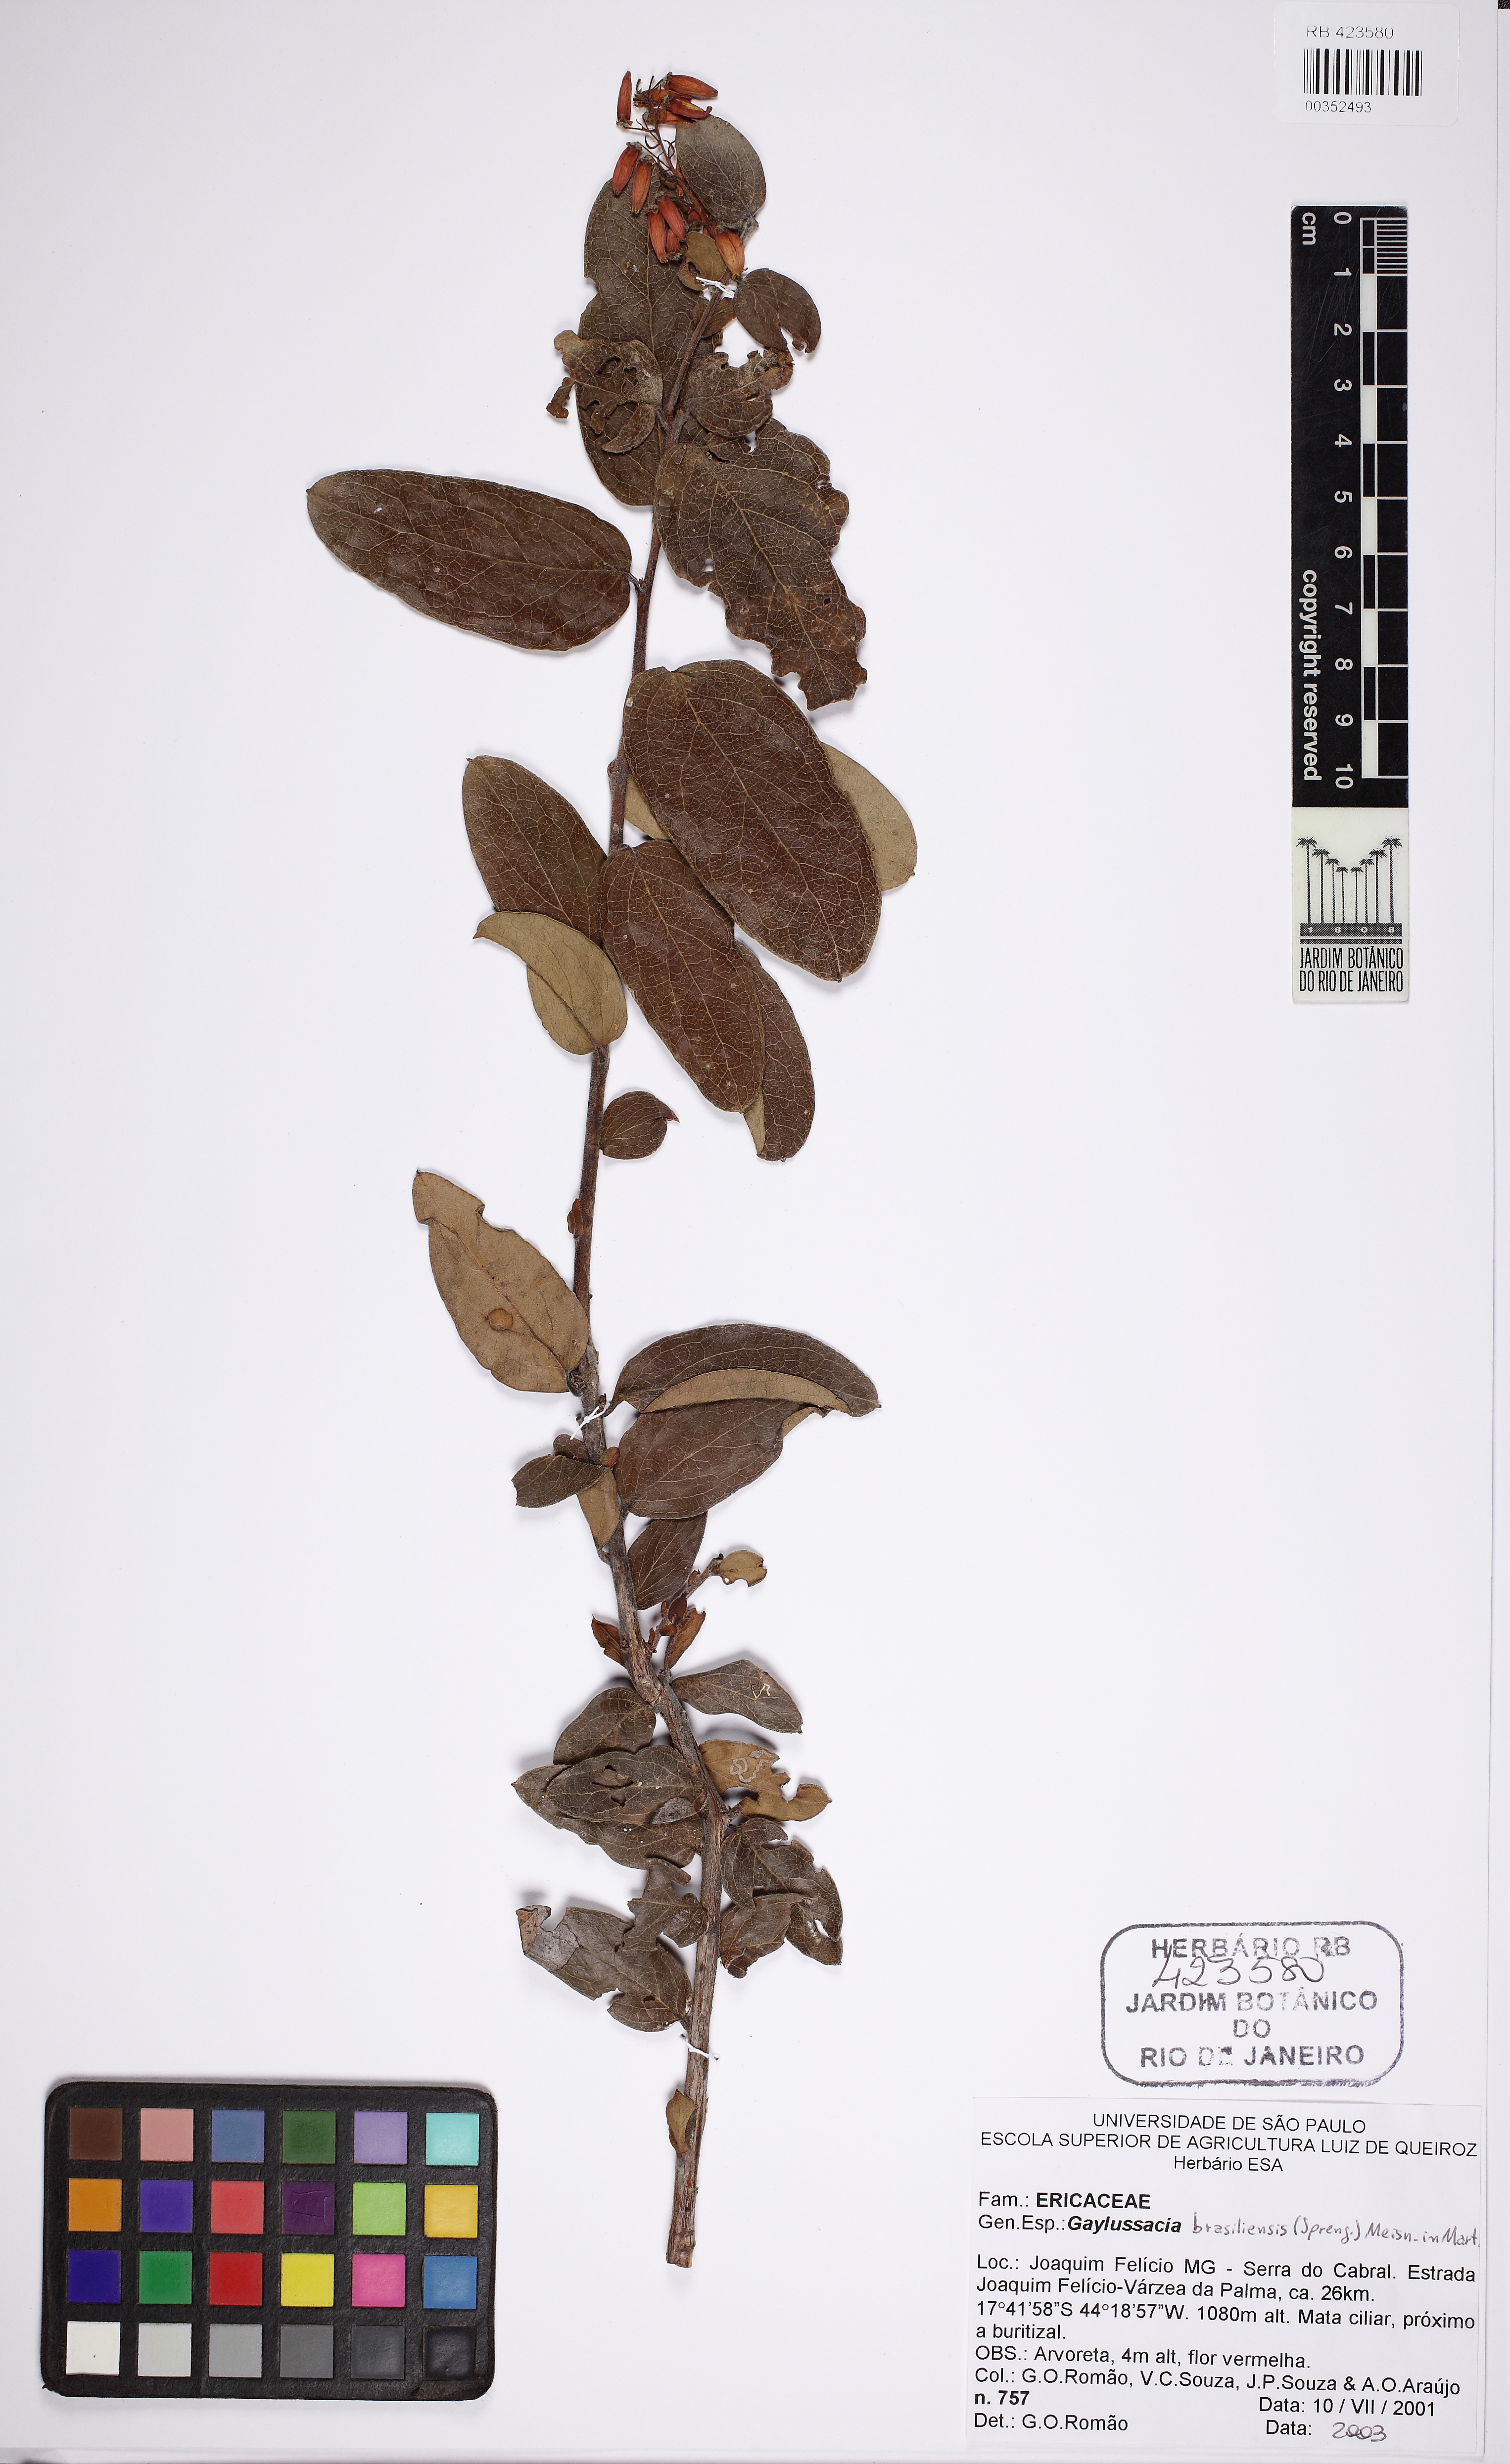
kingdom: Plantae
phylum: Tracheophyta
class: Magnoliopsida
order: Ericales
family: Ericaceae
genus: Gaylussacia
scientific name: Gaylussacia brasiliensis
